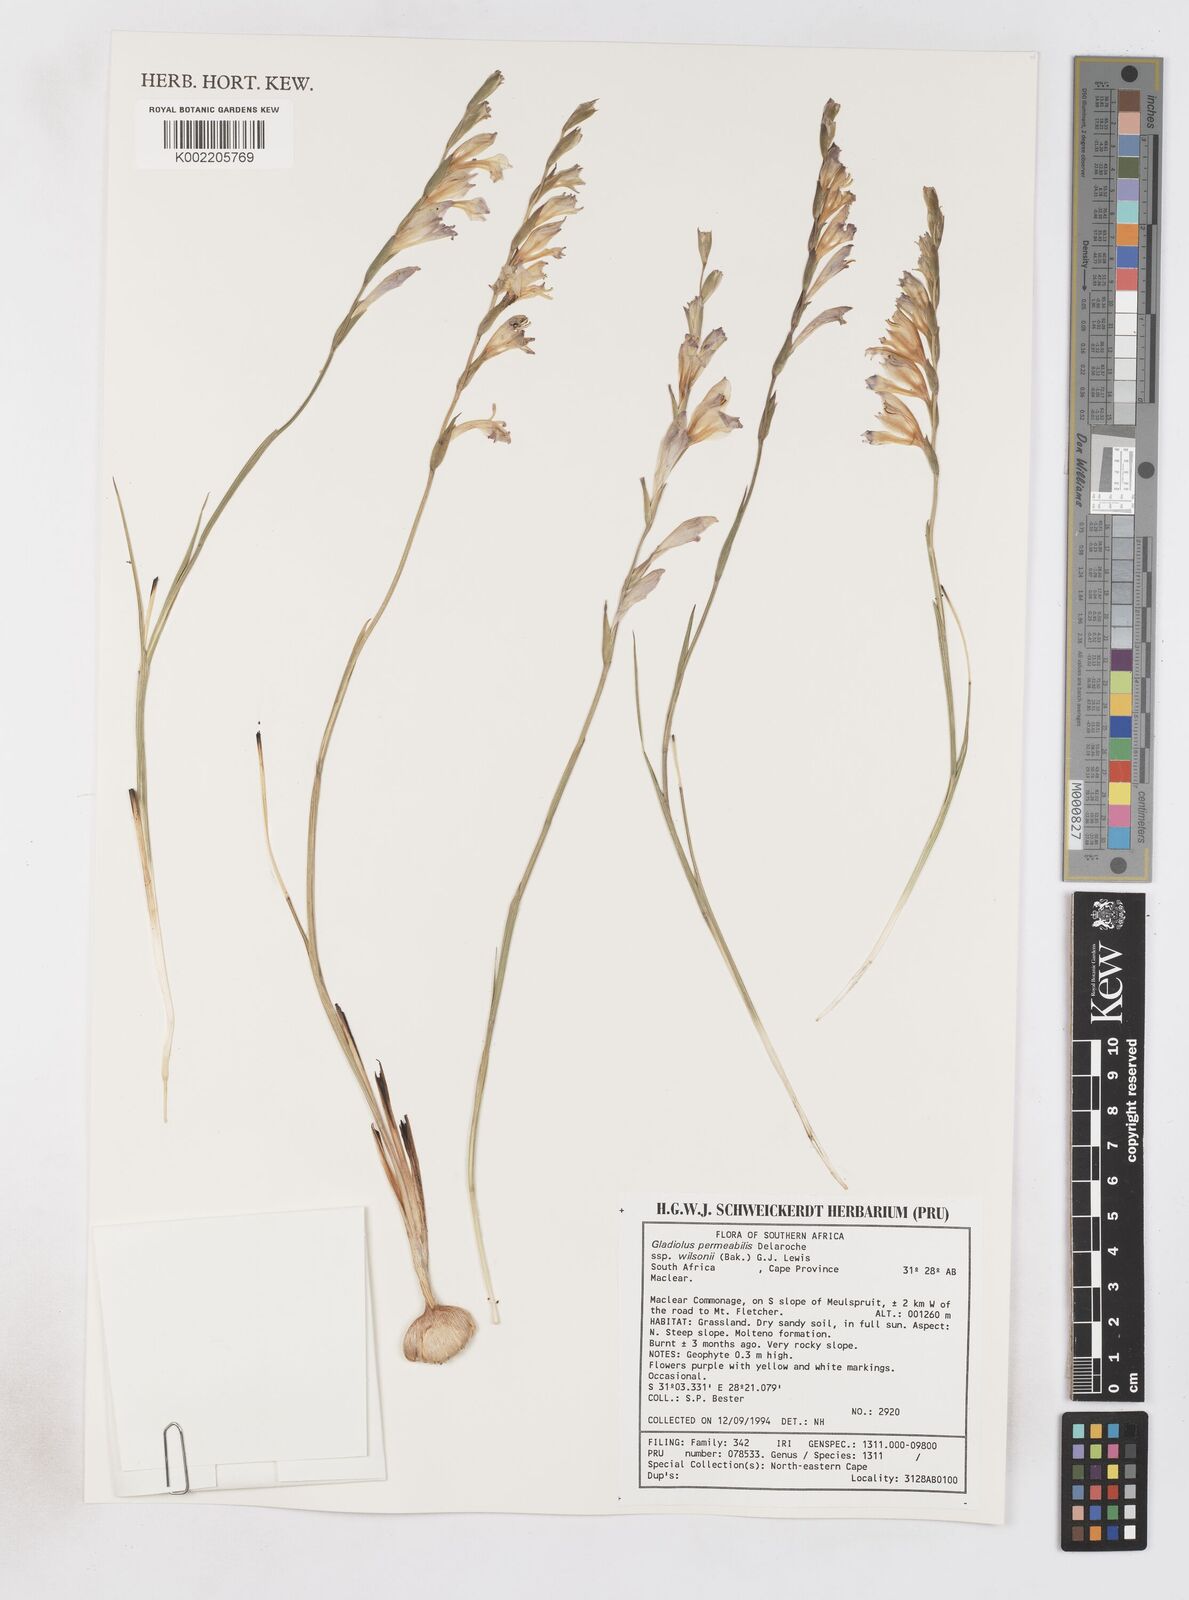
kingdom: Plantae
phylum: Tracheophyta
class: Liliopsida
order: Asparagales
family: Iridaceae
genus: Gladiolus
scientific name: Gladiolus wilsonii
